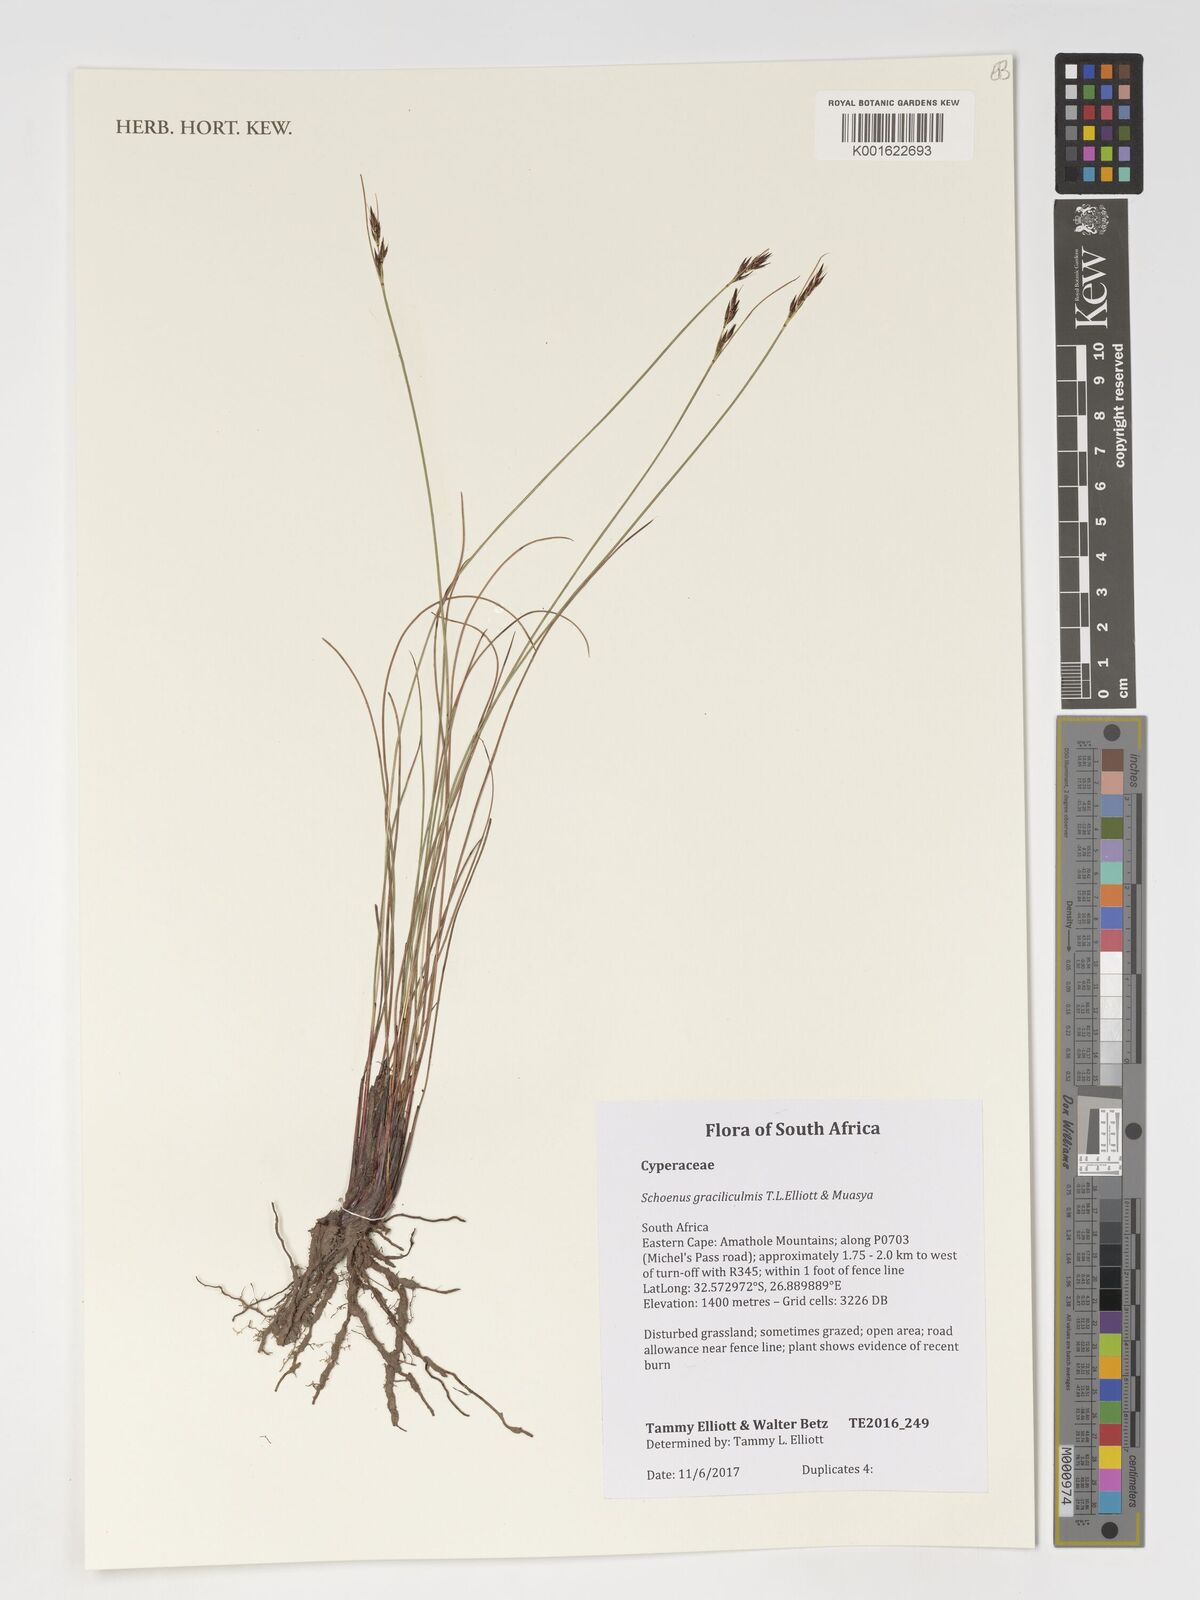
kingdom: Plantae
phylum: Tracheophyta
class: Liliopsida
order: Poales
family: Cyperaceae
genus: Schoenus
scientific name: Schoenus
